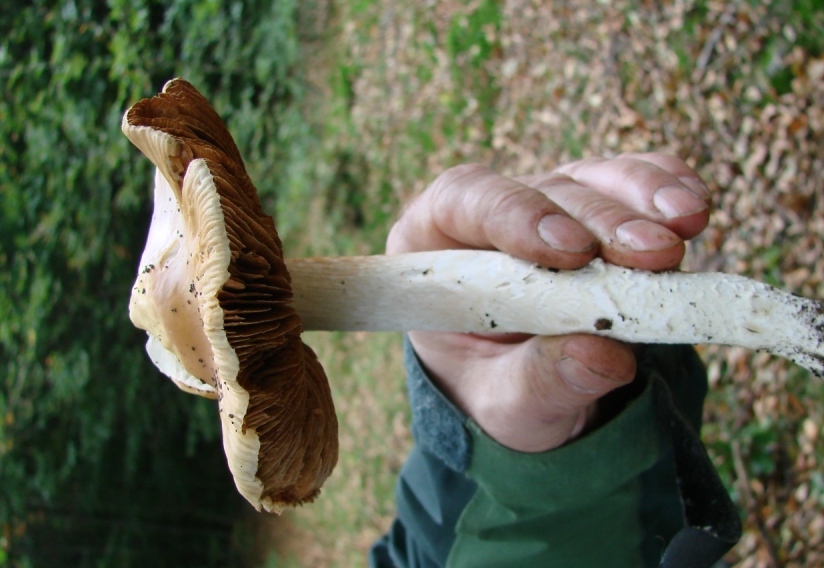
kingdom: Fungi
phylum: Basidiomycota
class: Agaricomycetes
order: Agaricales
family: Cortinariaceae
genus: Cortinarius
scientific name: Cortinarius elatior
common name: høj slørhat
